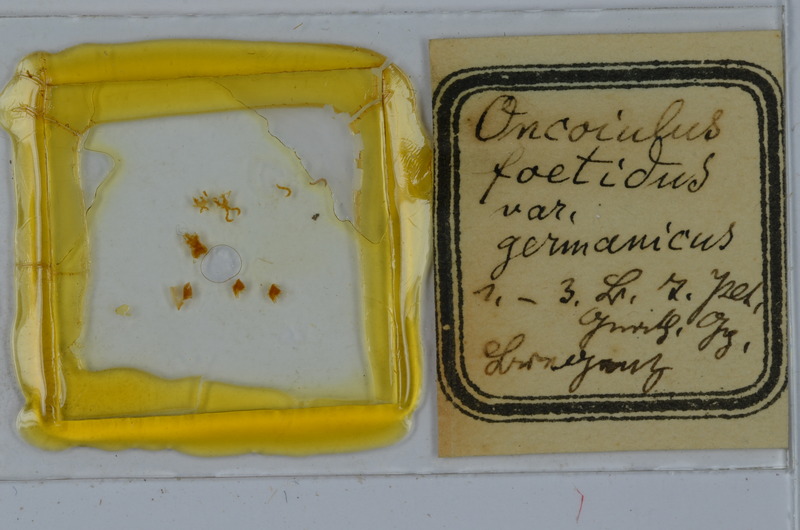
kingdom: Animalia
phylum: Arthropoda
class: Diplopoda
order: Julida
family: Julidae
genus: Unciger
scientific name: Unciger foetidus
